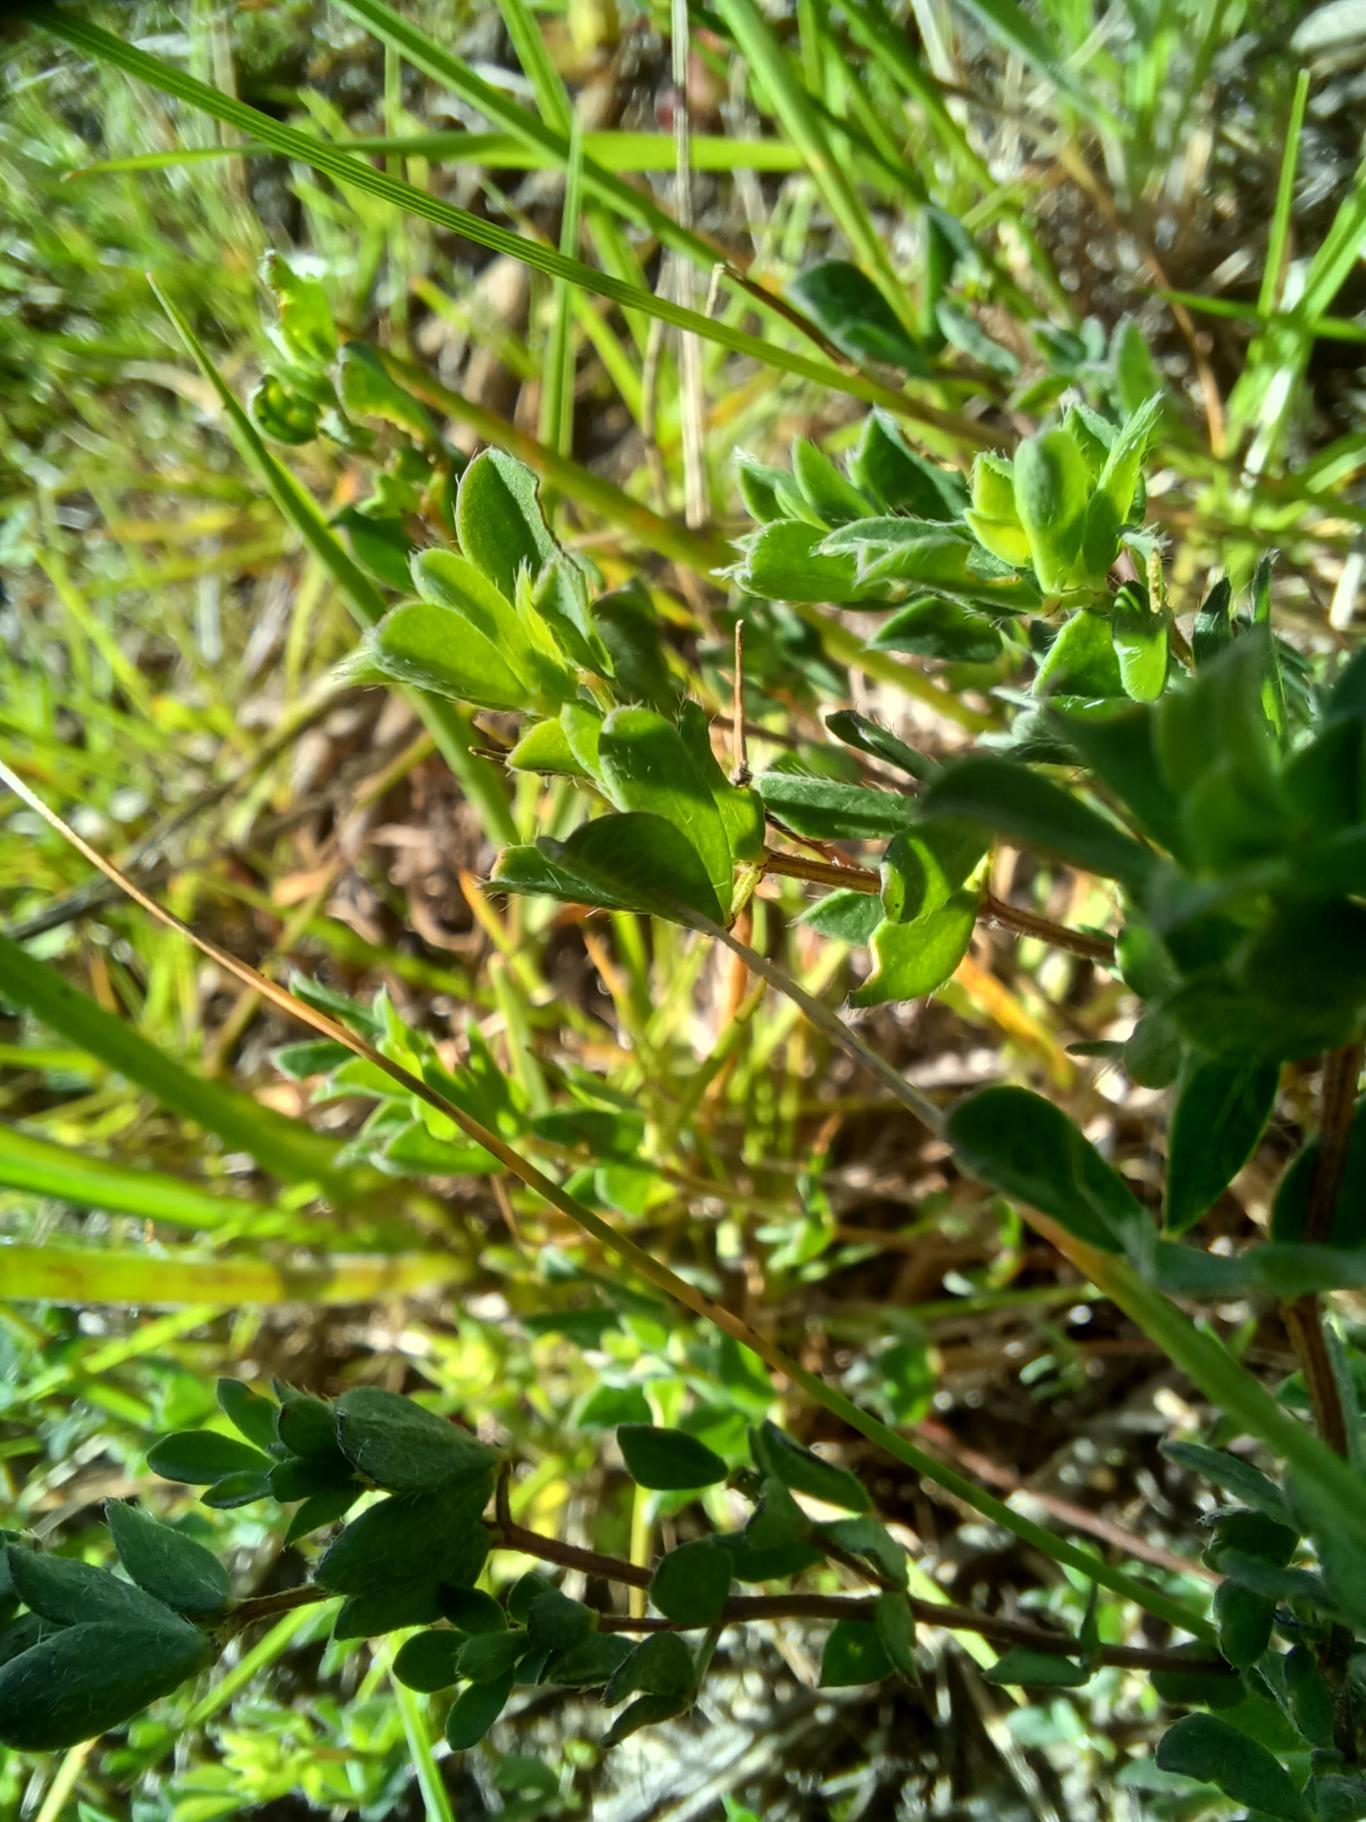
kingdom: Plantae
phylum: Tracheophyta
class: Magnoliopsida
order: Fabales
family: Fabaceae
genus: Lotus
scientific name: Lotus corniculatus
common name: Almindelig kællingetand
